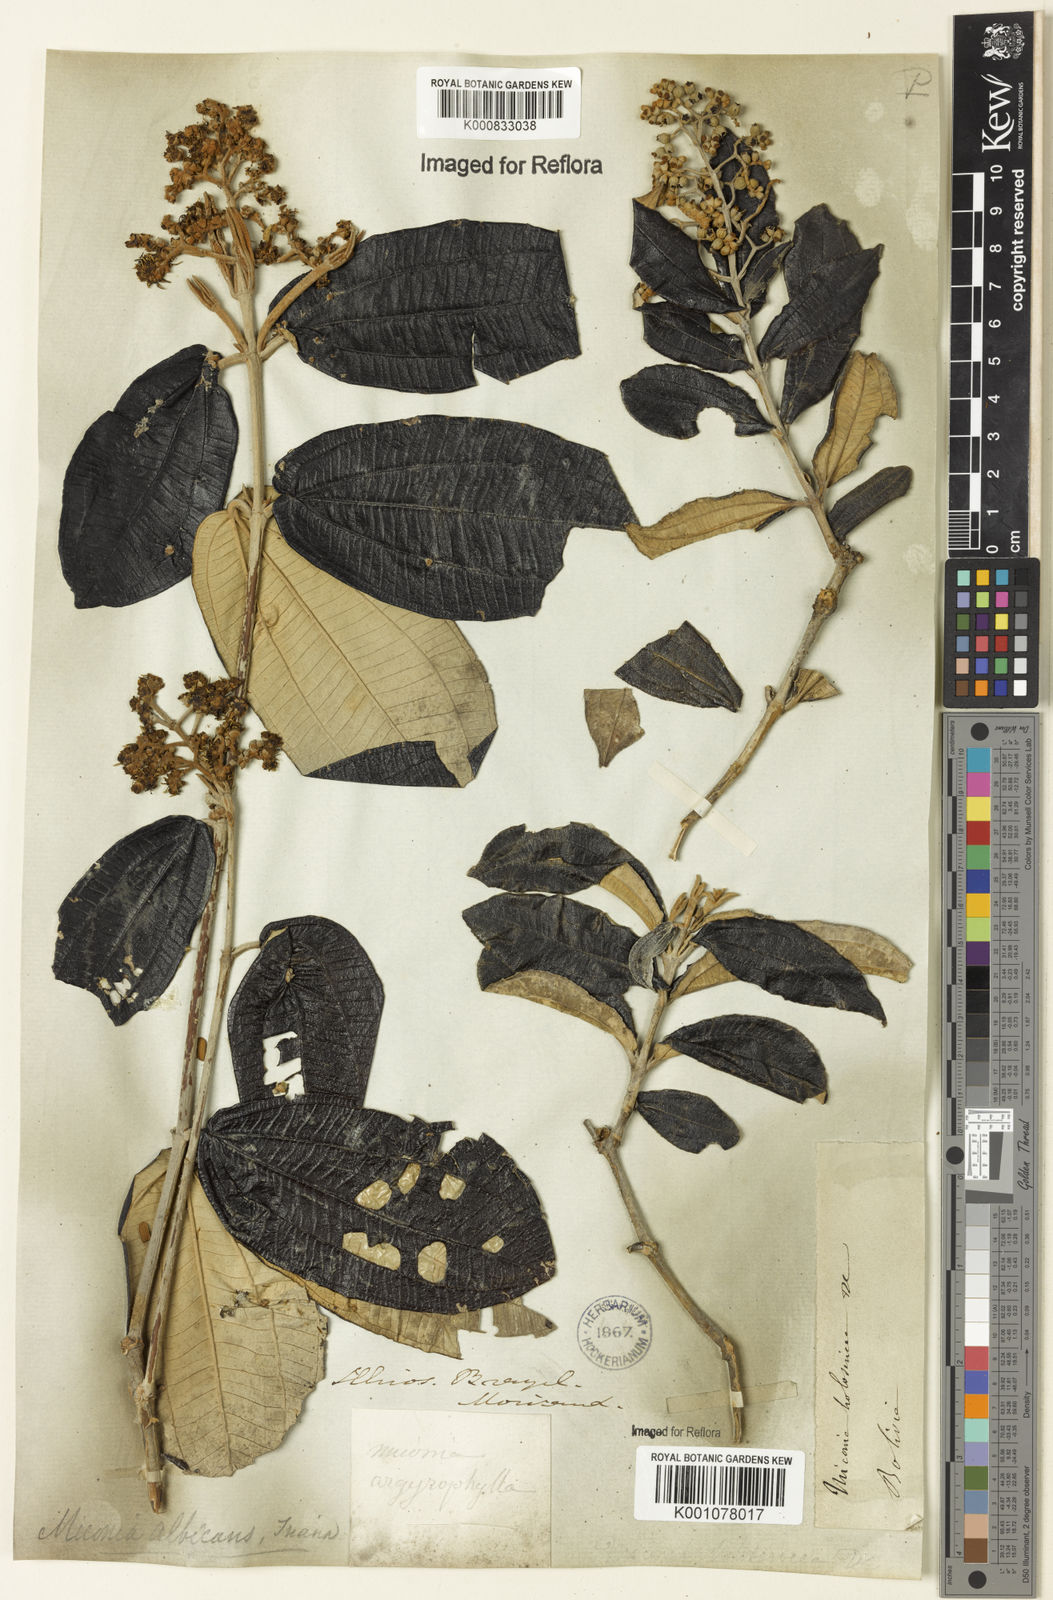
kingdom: Plantae
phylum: Tracheophyta
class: Magnoliopsida
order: Myrtales
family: Melastomataceae
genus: Miconia
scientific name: Miconia albicans
